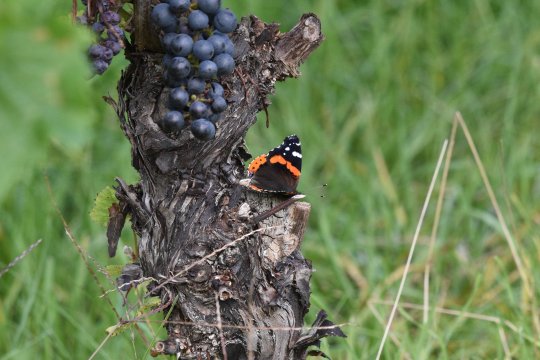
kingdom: Animalia
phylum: Arthropoda
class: Insecta
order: Lepidoptera
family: Nymphalidae
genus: Vanessa
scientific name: Vanessa atalanta
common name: Red Admiral
